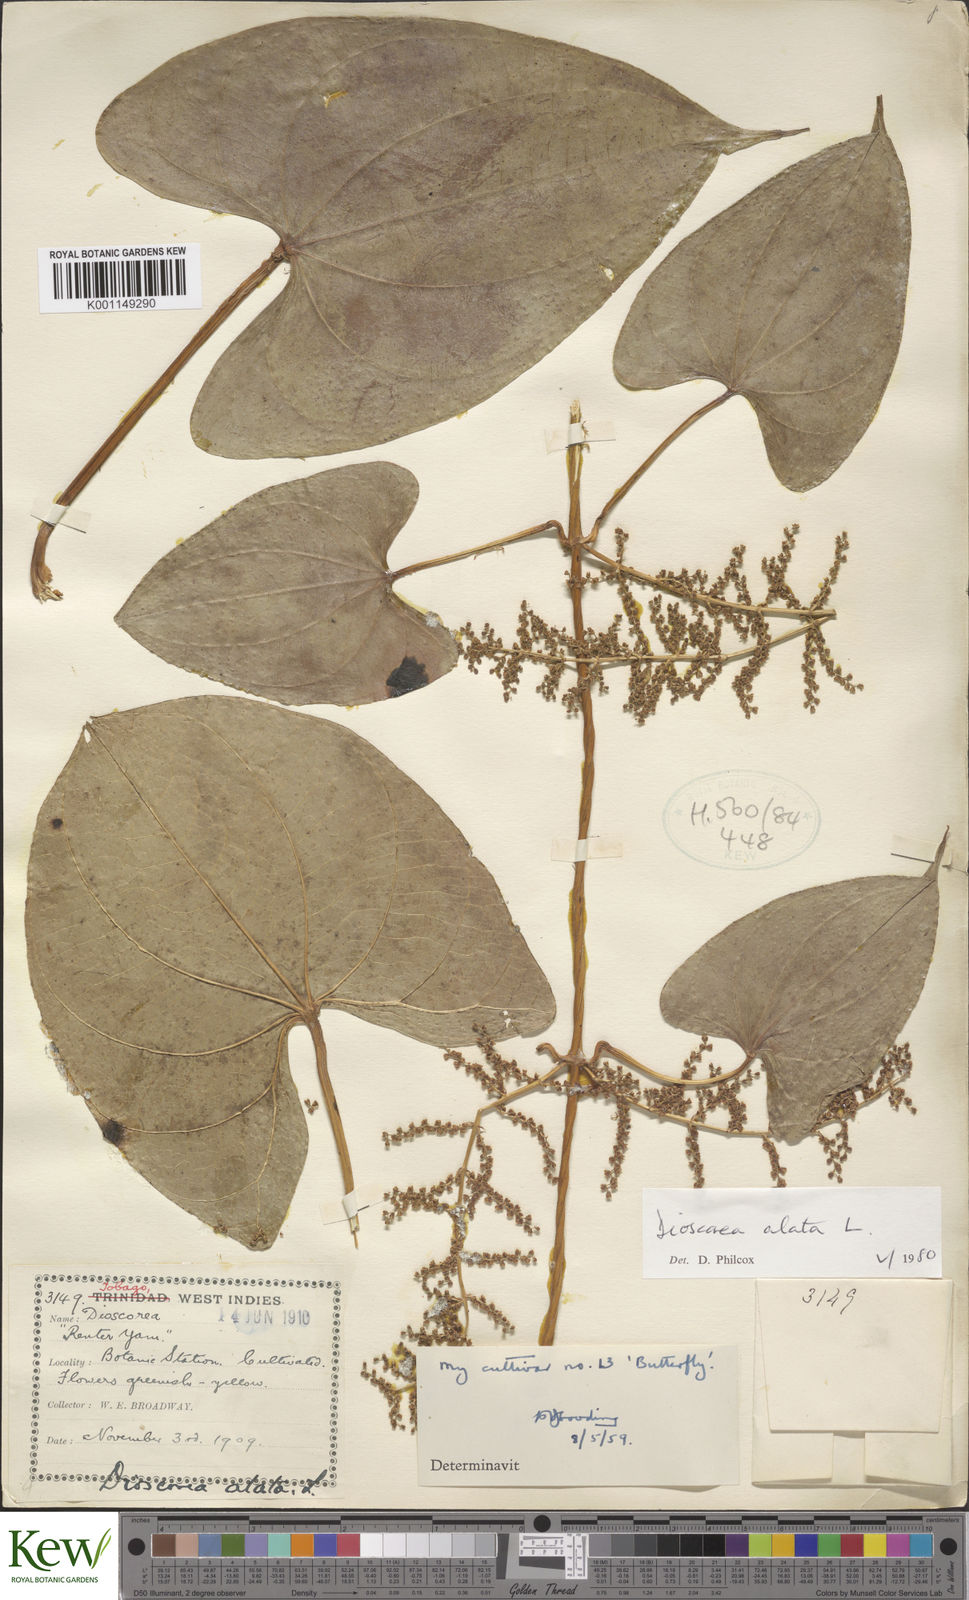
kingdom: Plantae
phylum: Tracheophyta
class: Liliopsida
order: Dioscoreales
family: Dioscoreaceae
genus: Dioscorea
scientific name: Dioscorea alata
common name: Water yam
